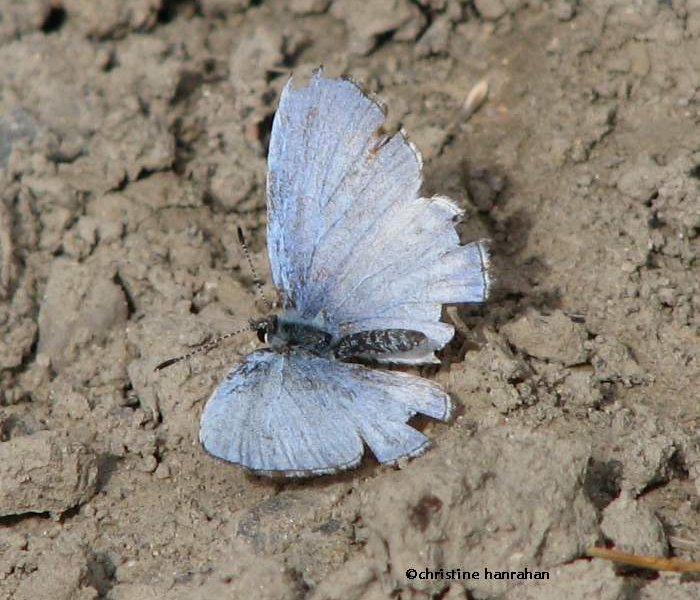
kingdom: Animalia
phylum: Arthropoda
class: Insecta
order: Lepidoptera
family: Lycaenidae
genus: Cyaniris
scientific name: Cyaniris neglecta
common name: Summer Azure
